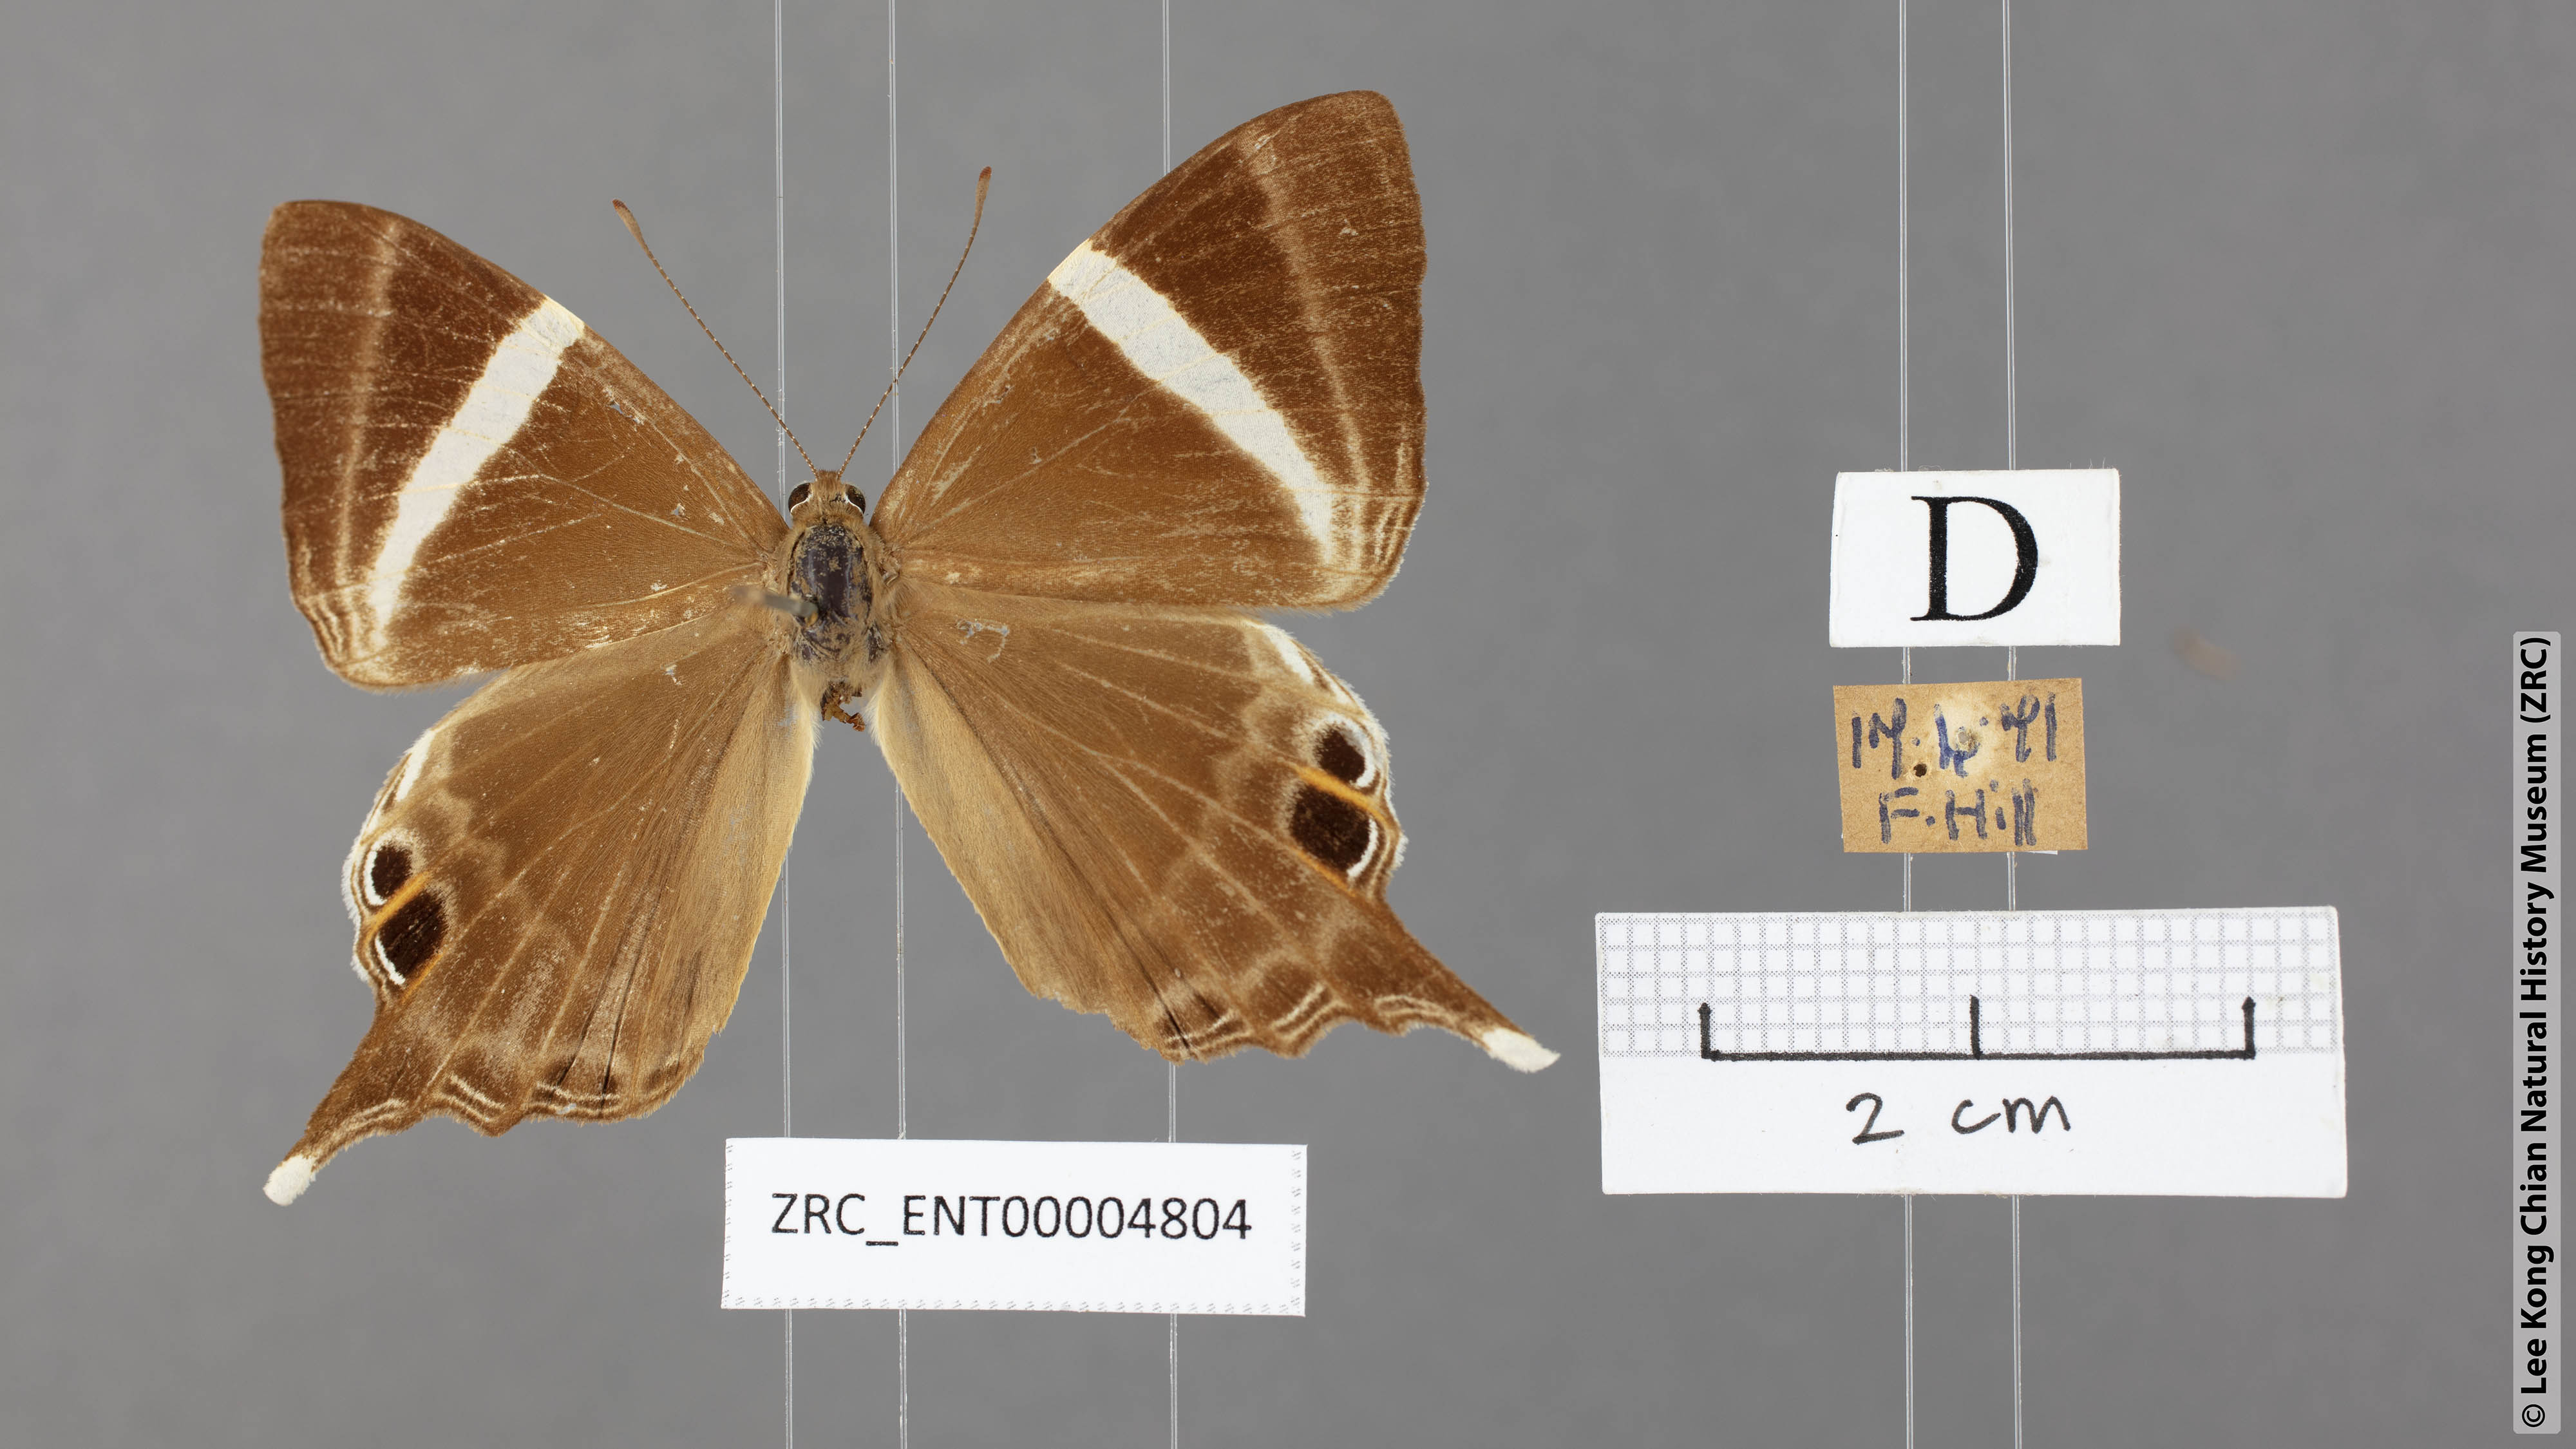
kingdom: Animalia
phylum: Arthropoda
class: Insecta
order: Lepidoptera
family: Riodinidae
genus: Archigenes
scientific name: Archigenes neophron
